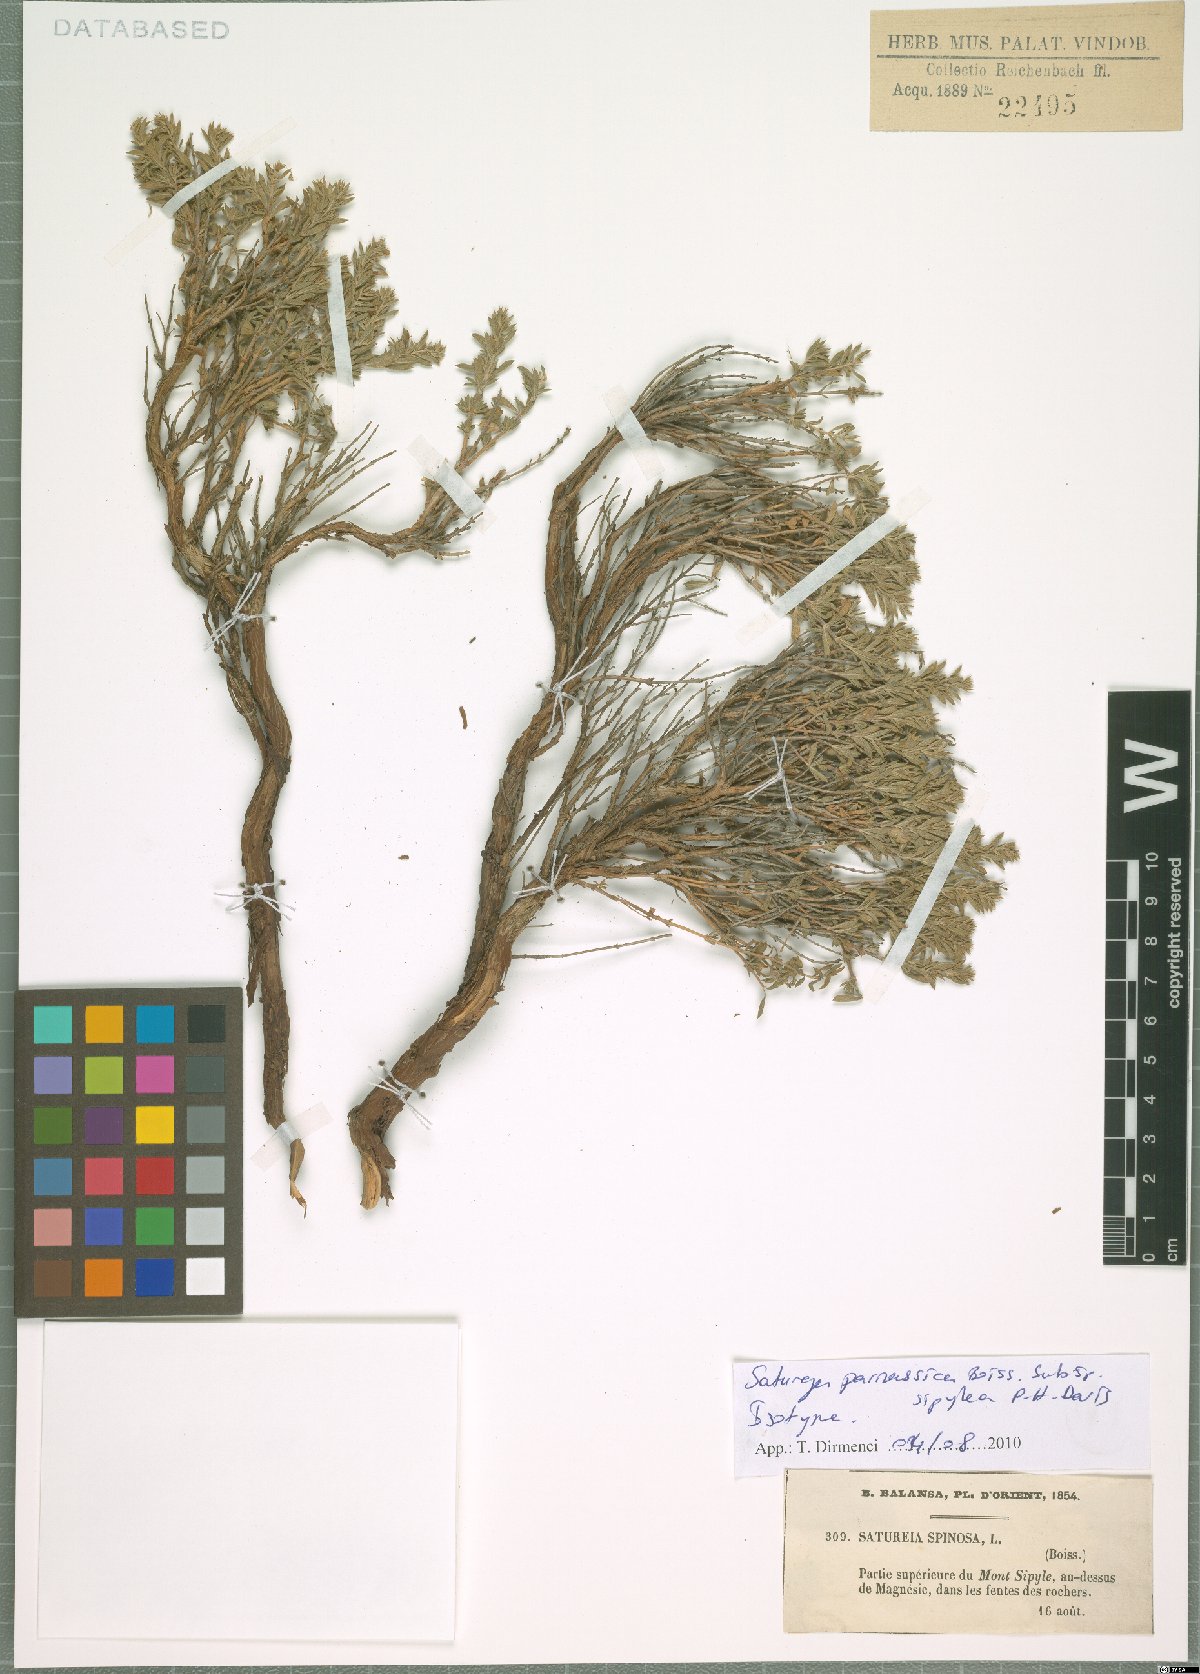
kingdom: Plantae
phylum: Tracheophyta
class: Magnoliopsida
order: Lamiales
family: Lamiaceae
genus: Satureja
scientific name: Satureja parnassica
